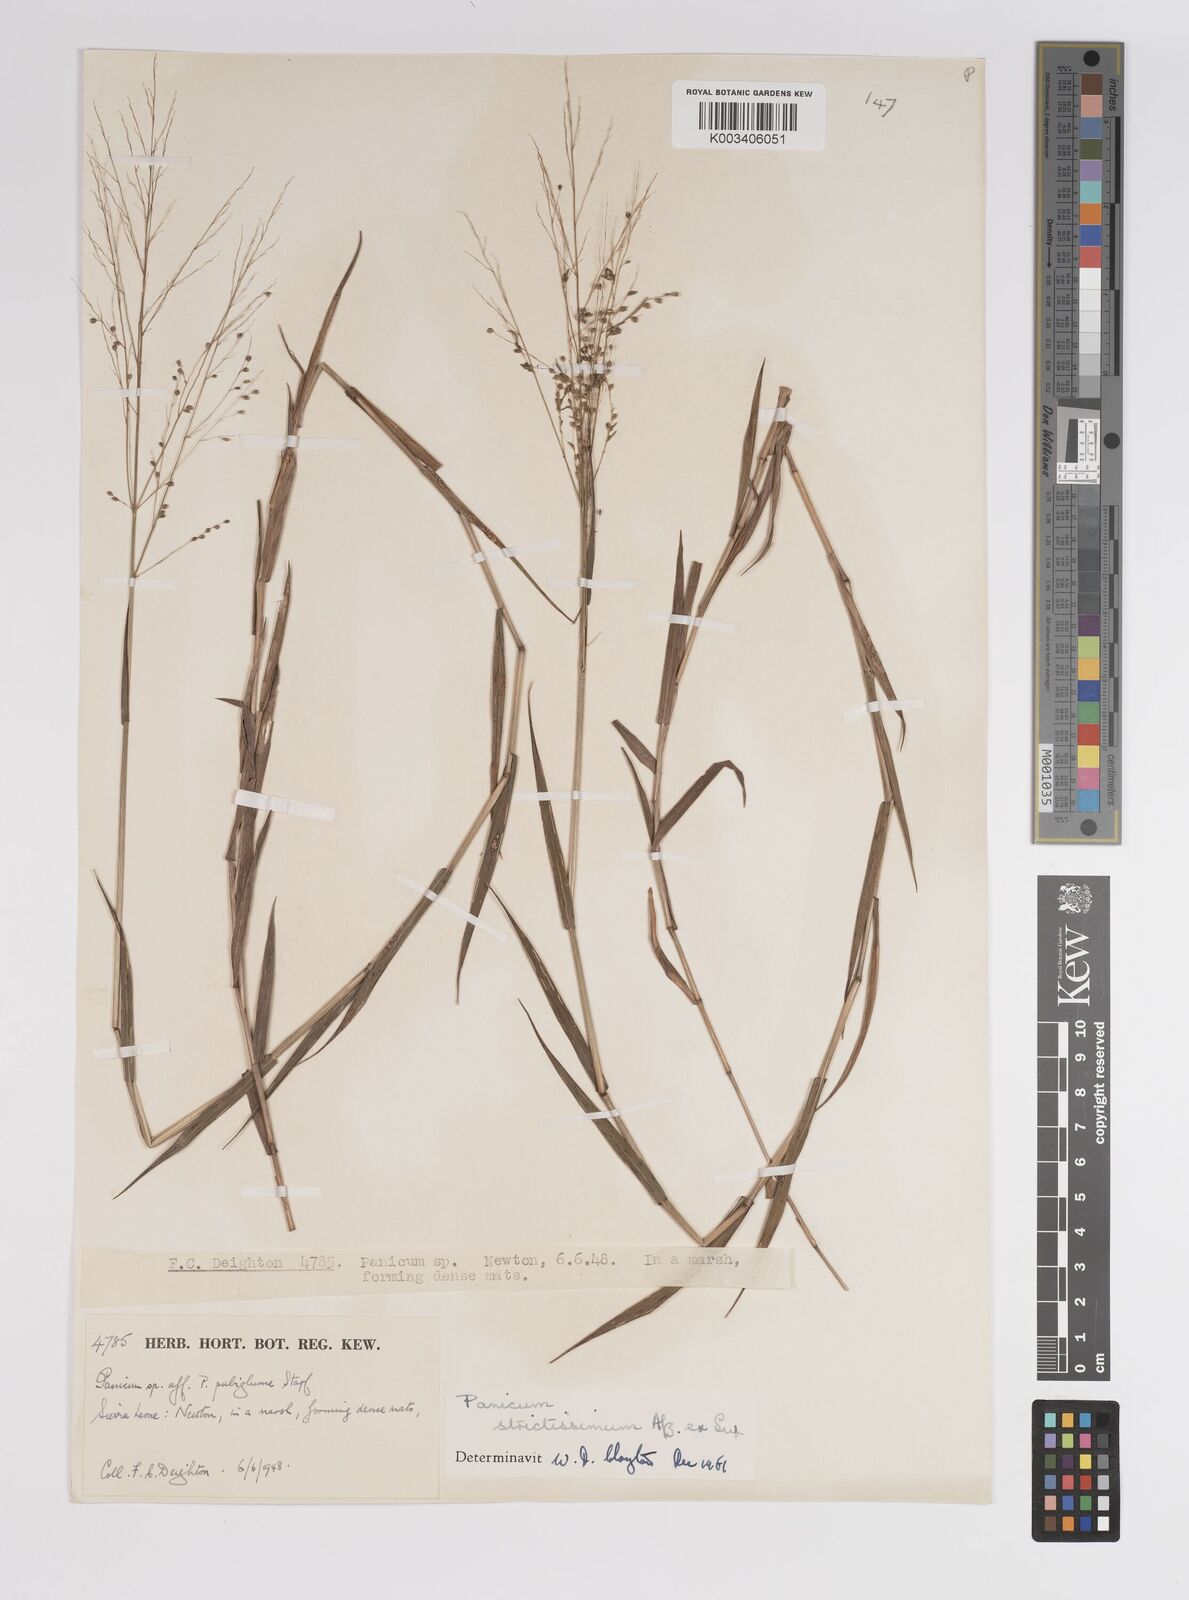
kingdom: Plantae
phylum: Tracheophyta
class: Liliopsida
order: Poales
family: Poaceae
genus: Trichanthecium
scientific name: Trichanthecium strictissimum
